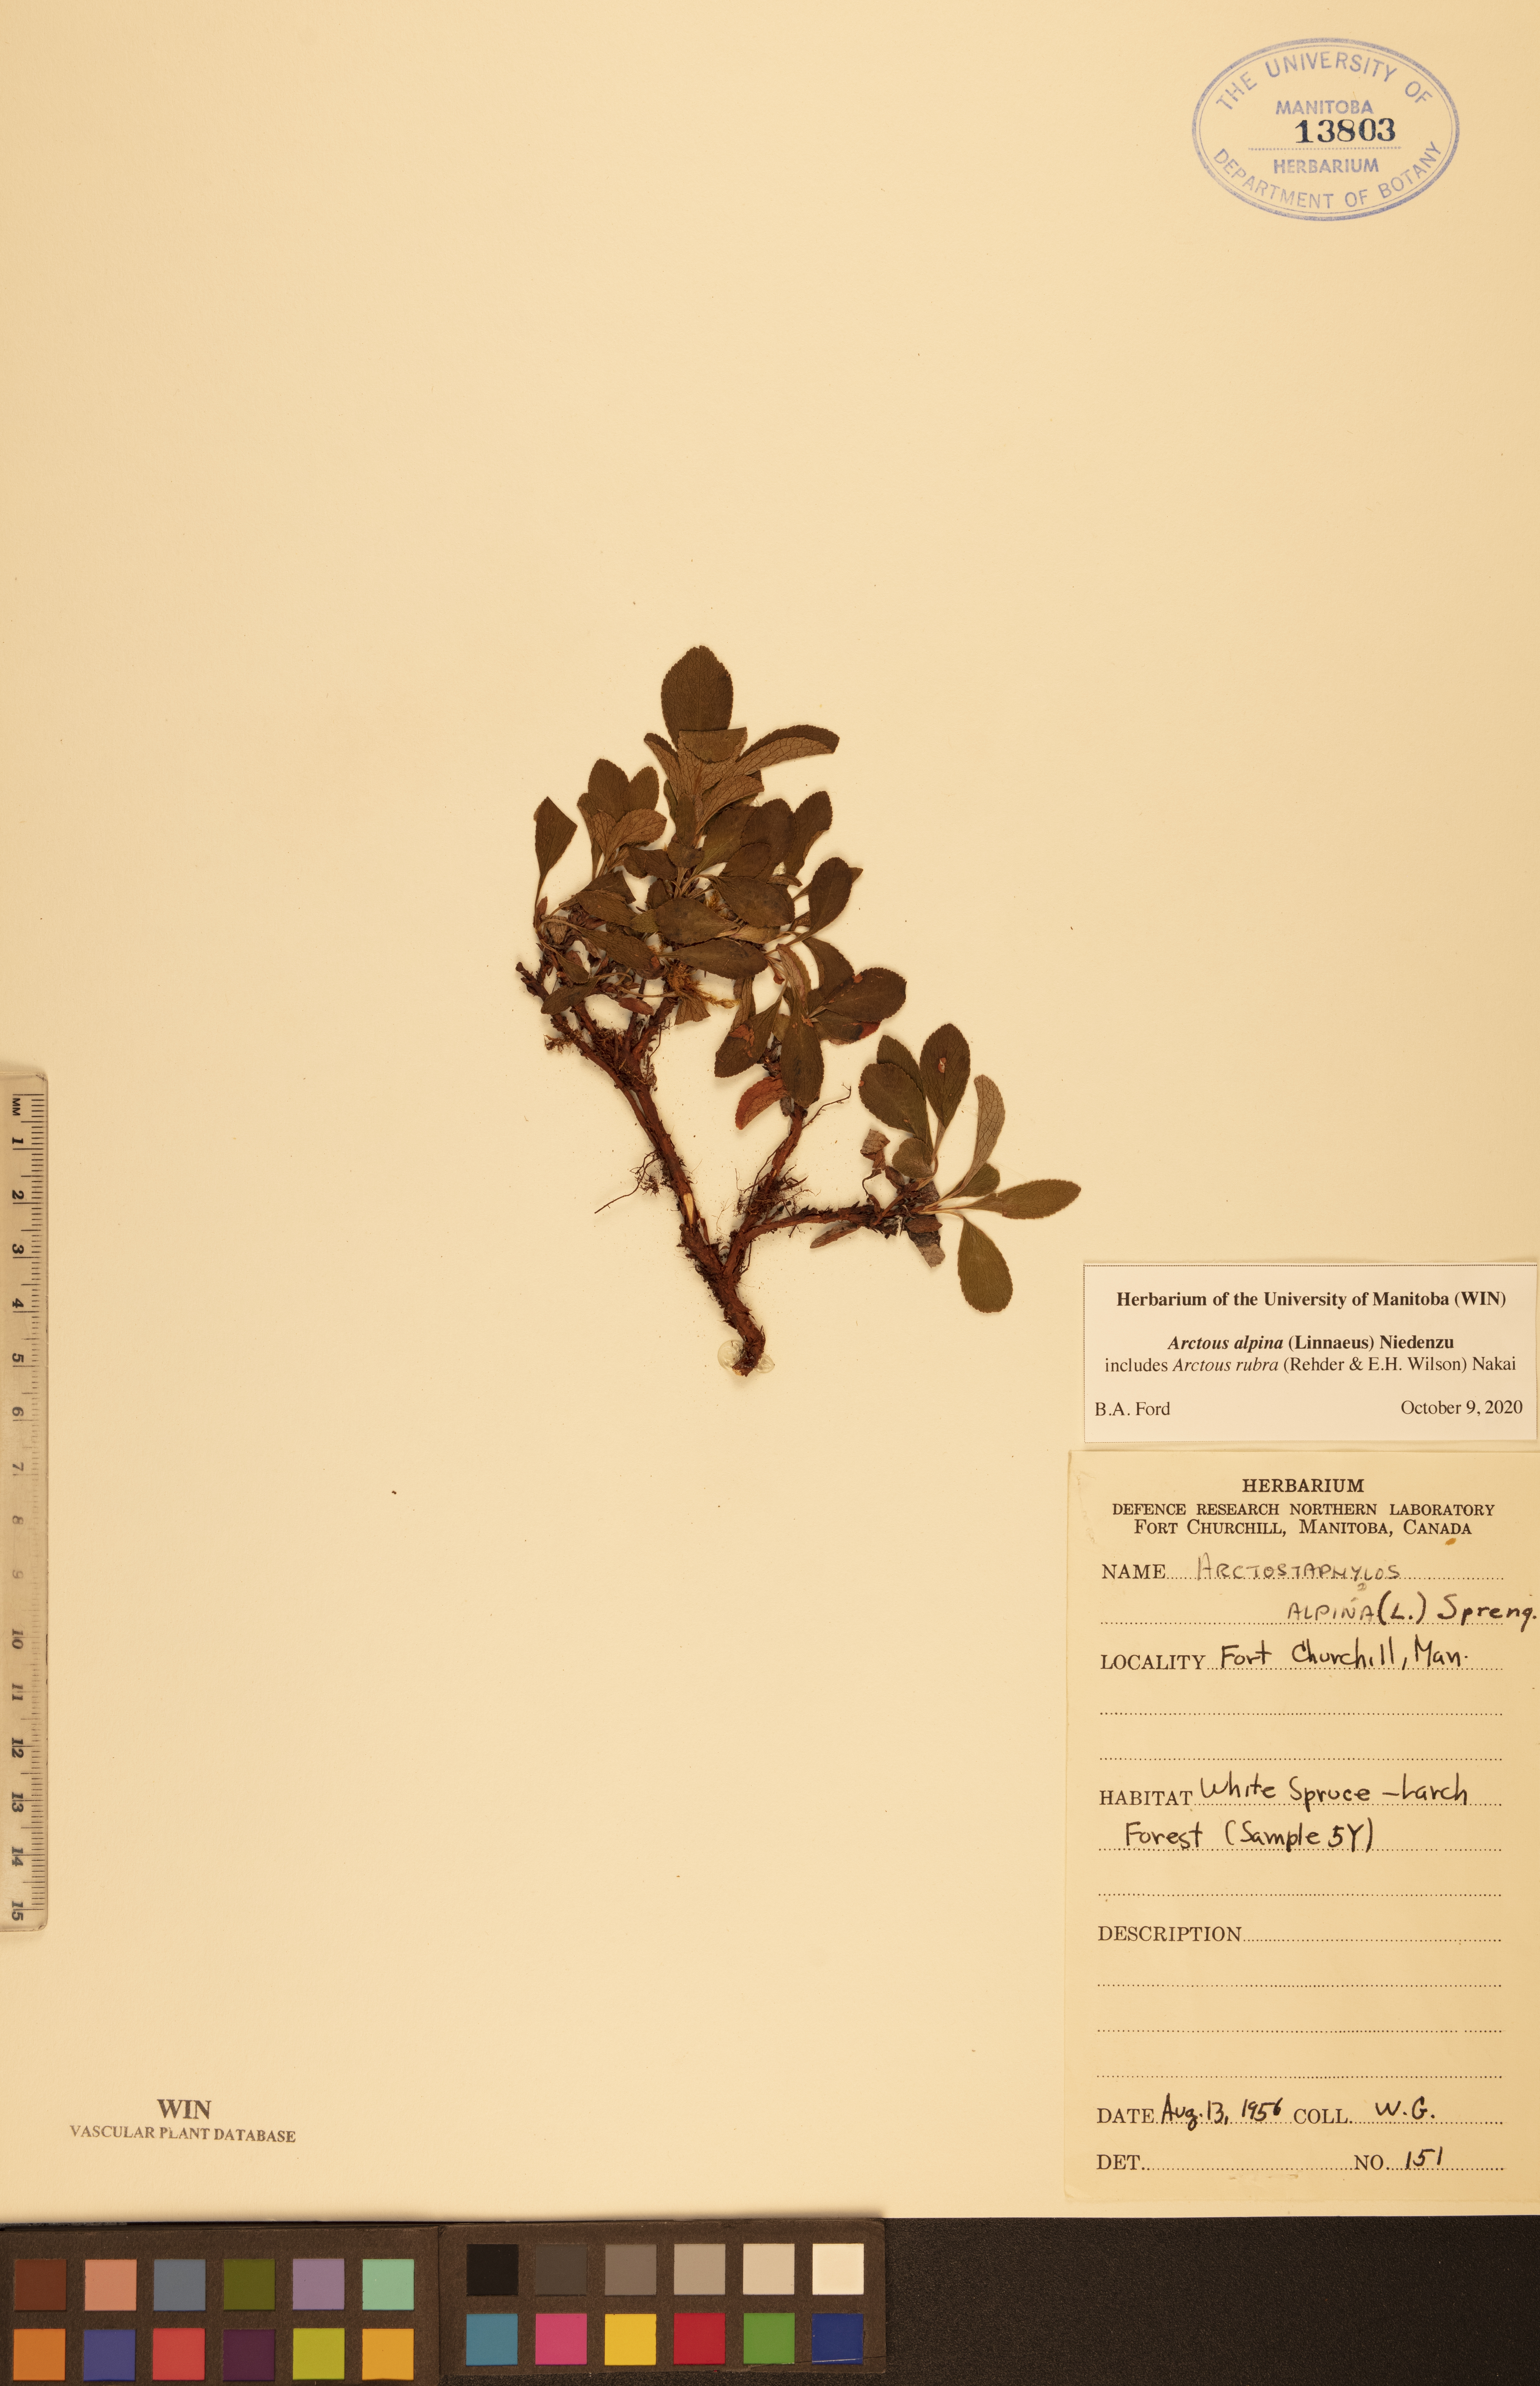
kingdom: Plantae
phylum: Tracheophyta
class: Magnoliopsida
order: Ericales
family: Ericaceae
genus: Arctostaphylos
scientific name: Arctostaphylos alpinus
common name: Alpine bearberry
